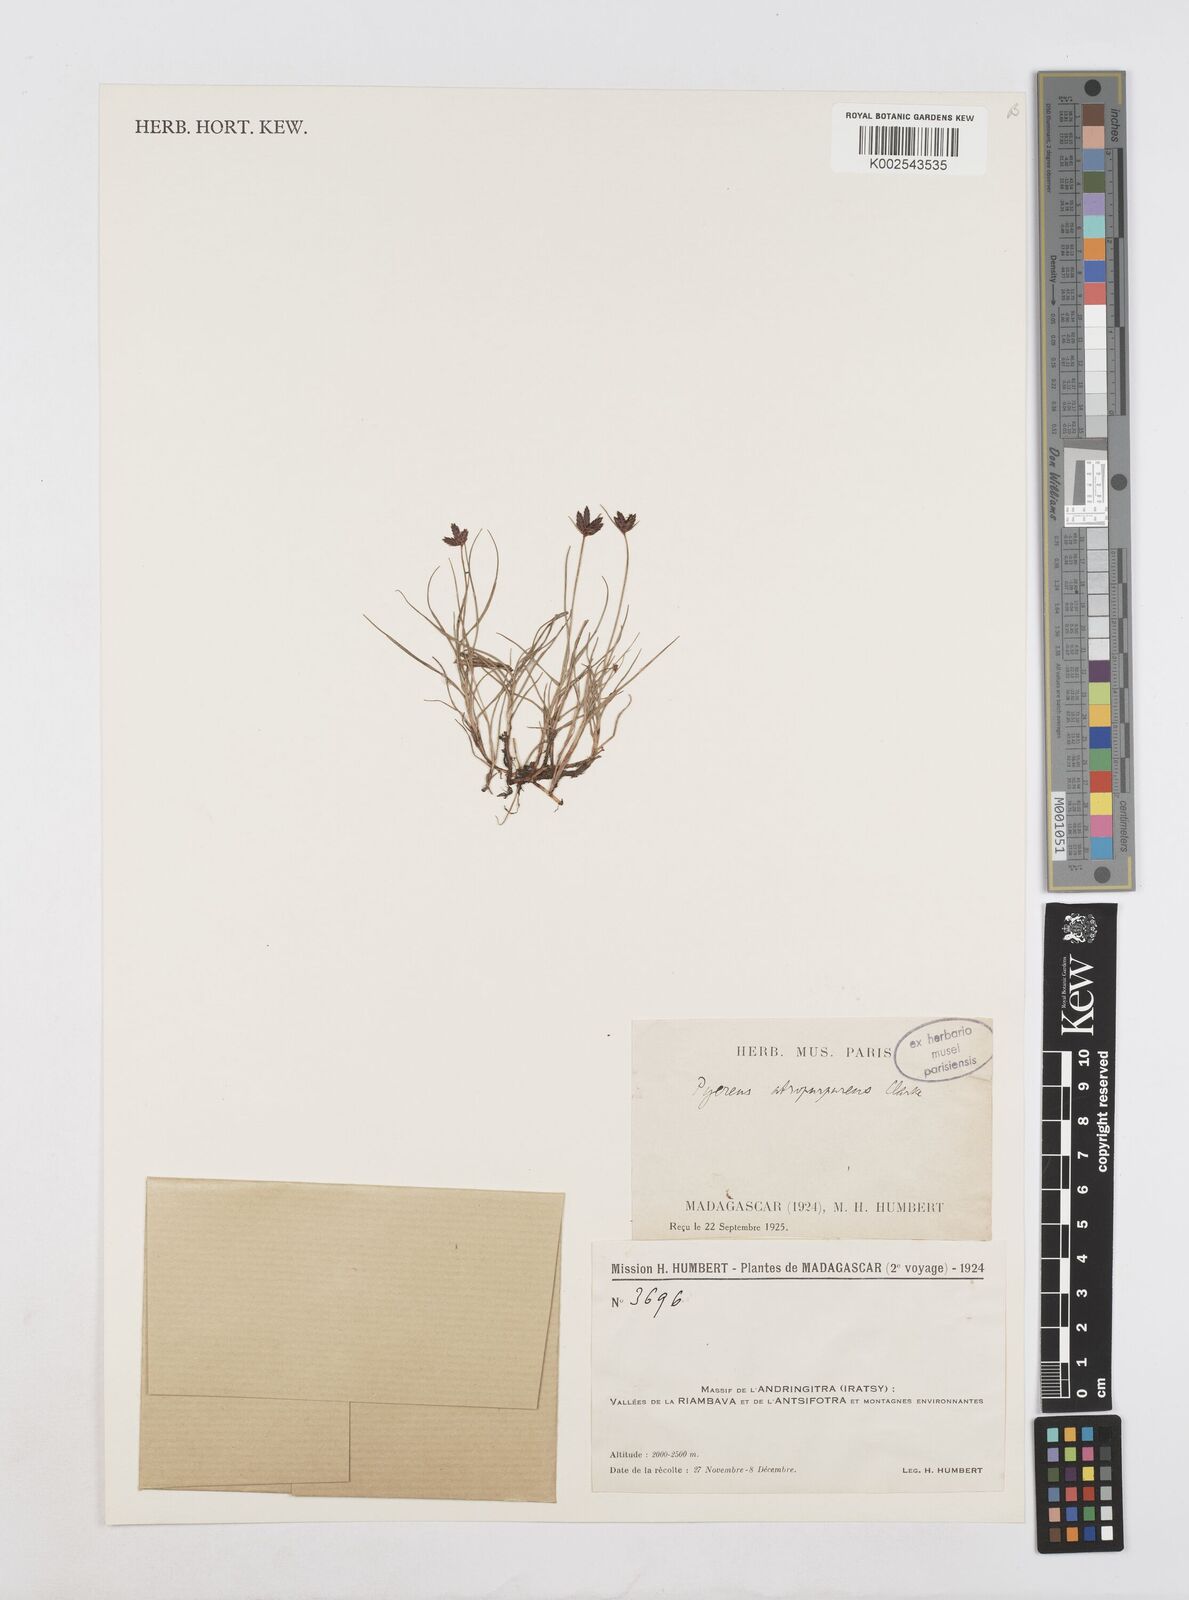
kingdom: Plantae
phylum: Tracheophyta
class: Liliopsida
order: Poales
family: Cyperaceae
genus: Cyperus
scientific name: Cyperus chermezonii
